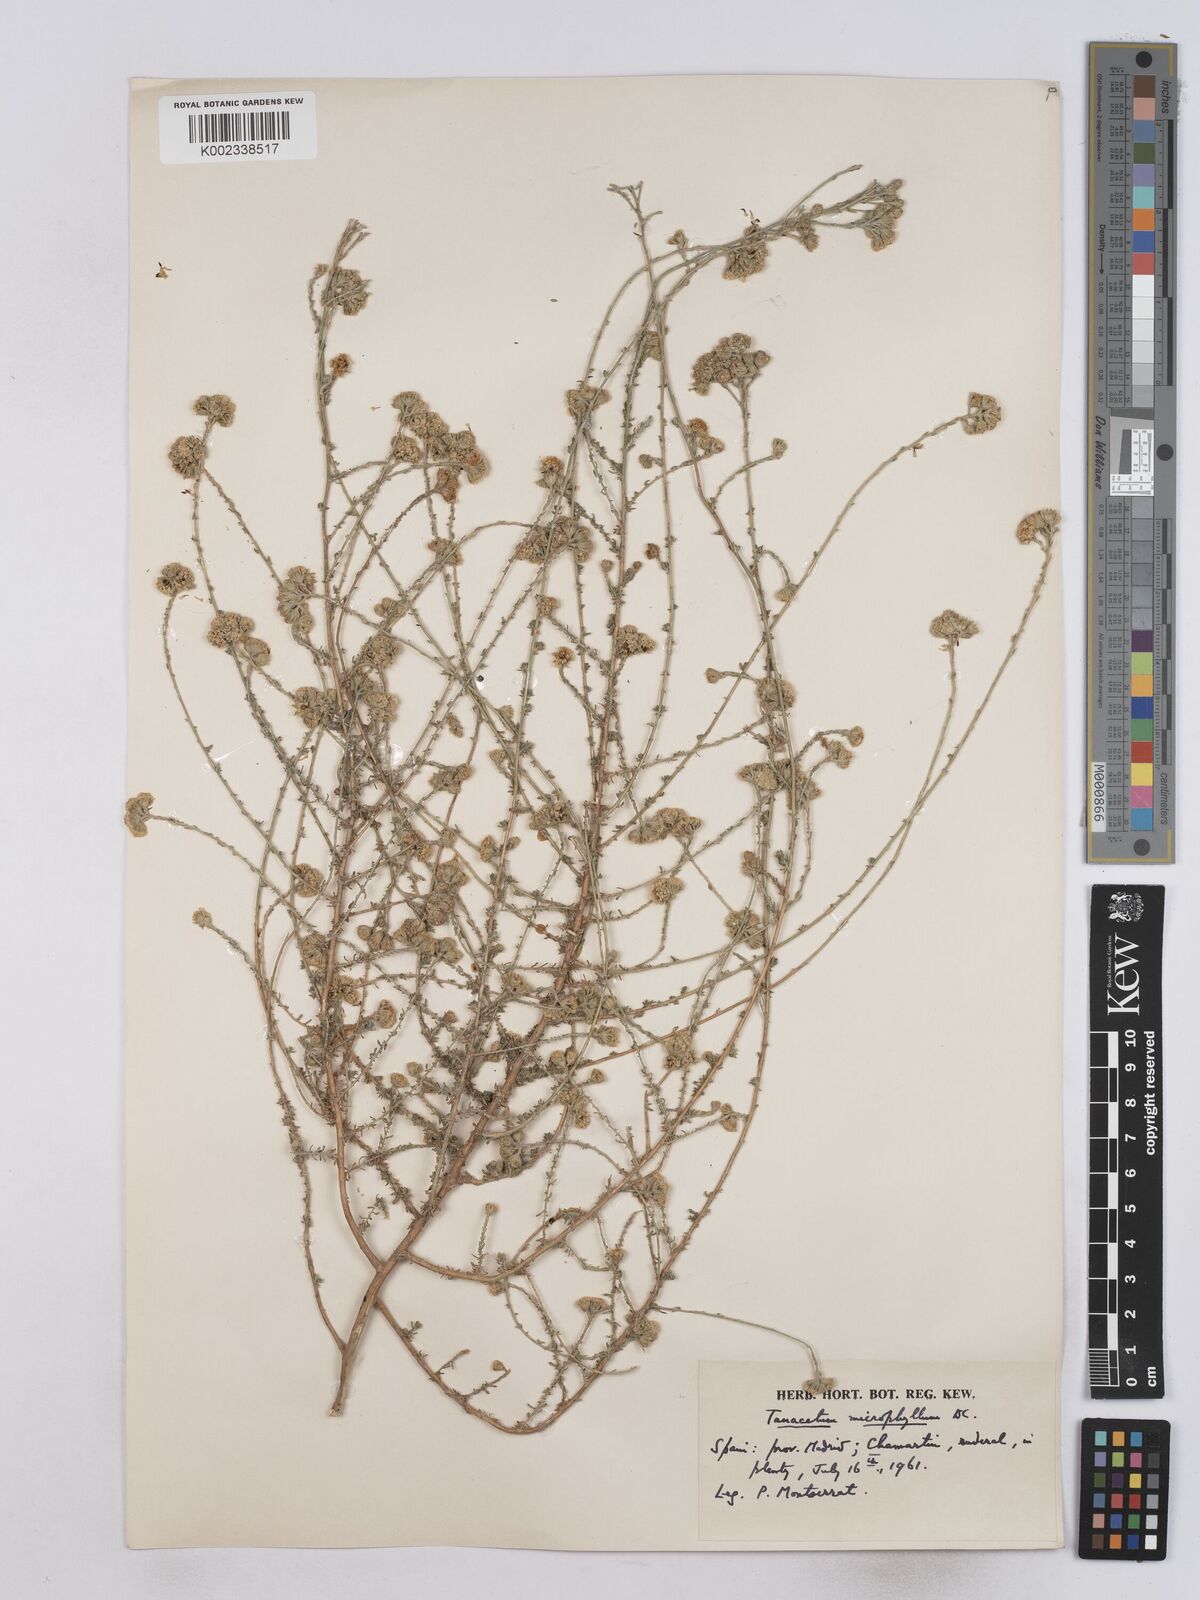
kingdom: Plantae
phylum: Tracheophyta
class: Magnoliopsida
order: Asterales
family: Asteraceae
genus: Vogtia
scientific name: Vogtia microphylla
